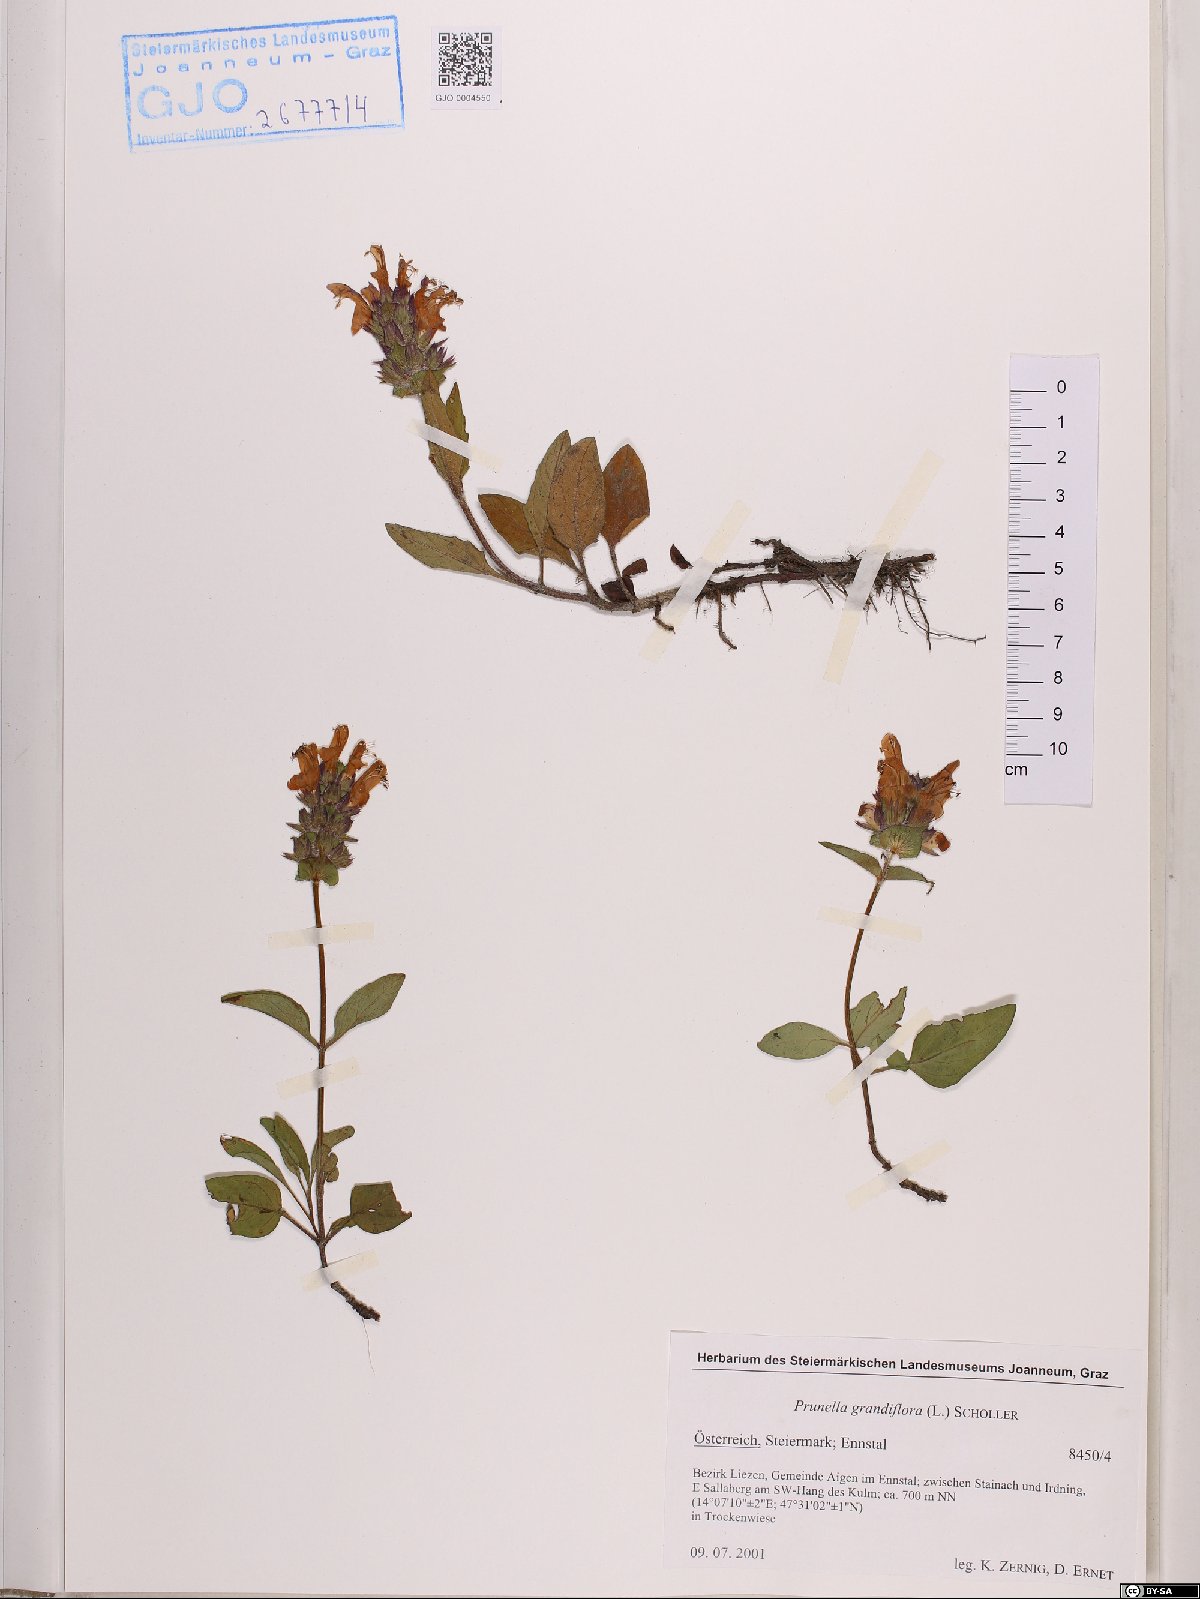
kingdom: Plantae
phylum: Tracheophyta
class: Magnoliopsida
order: Lamiales
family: Lamiaceae
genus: Prunella
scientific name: Prunella grandiflora
